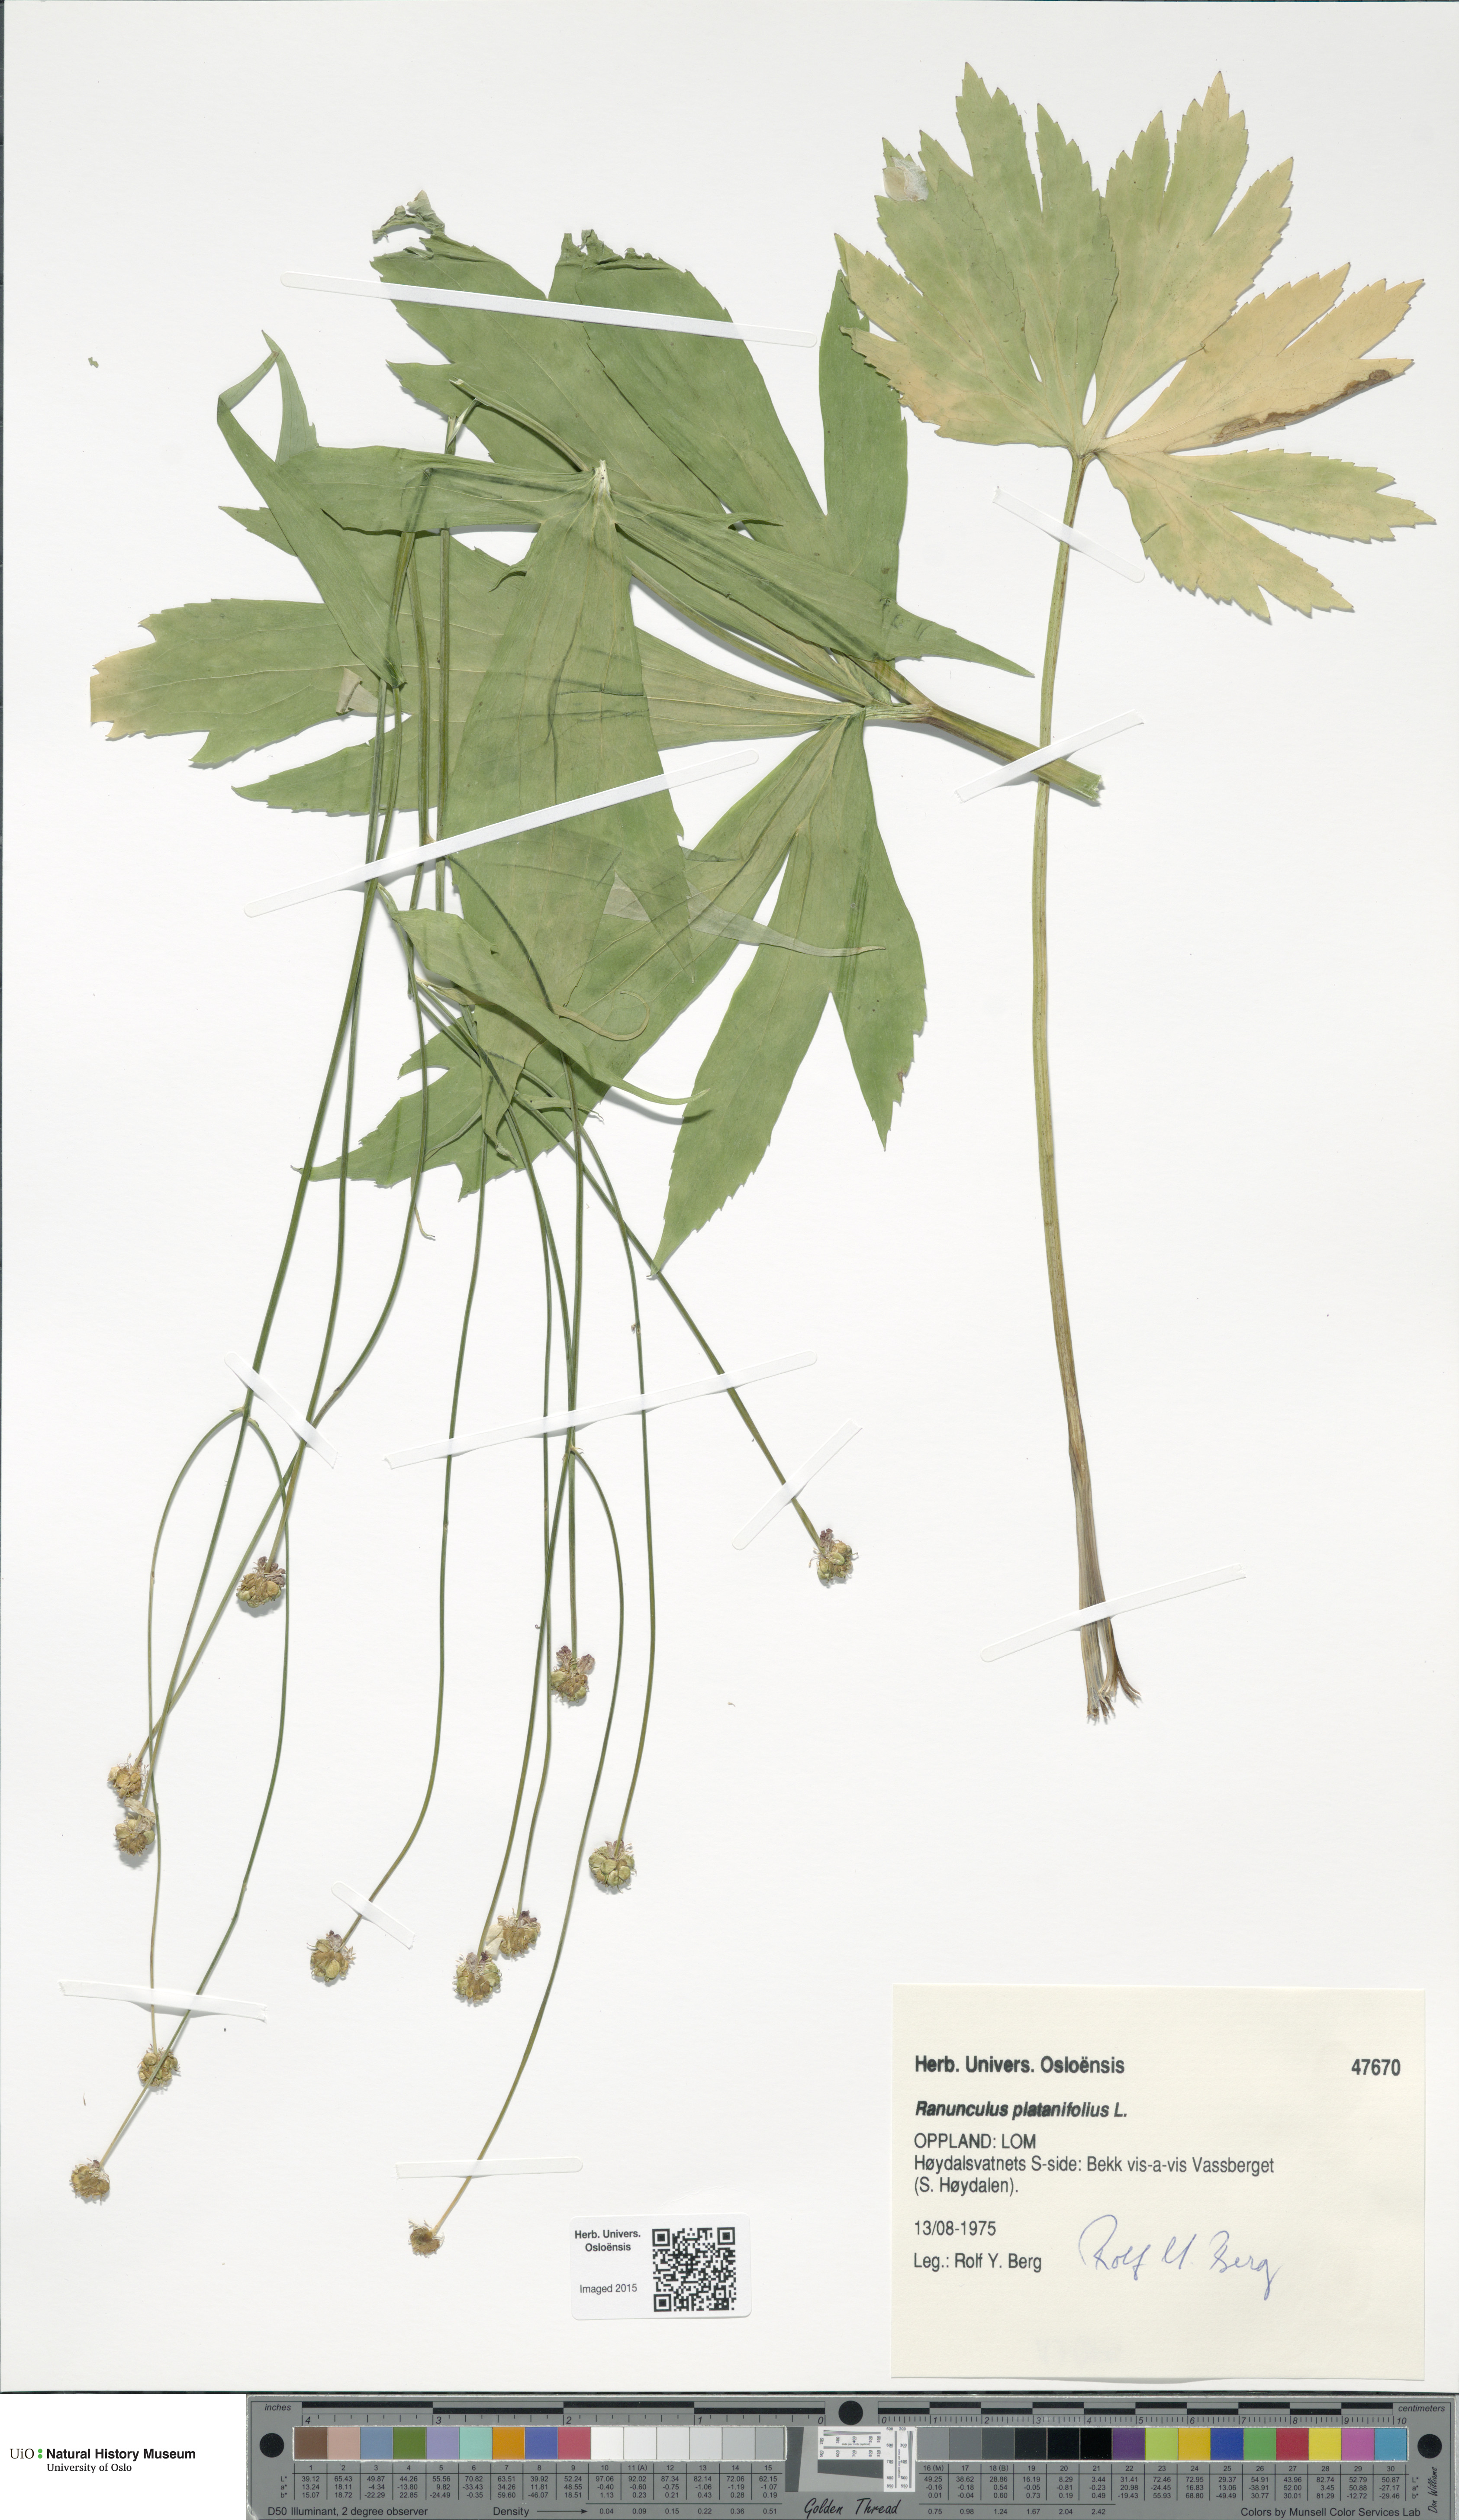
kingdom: Plantae
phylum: Tracheophyta
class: Magnoliopsida
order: Ranunculales
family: Ranunculaceae
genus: Ranunculus
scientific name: Ranunculus platanifolius
